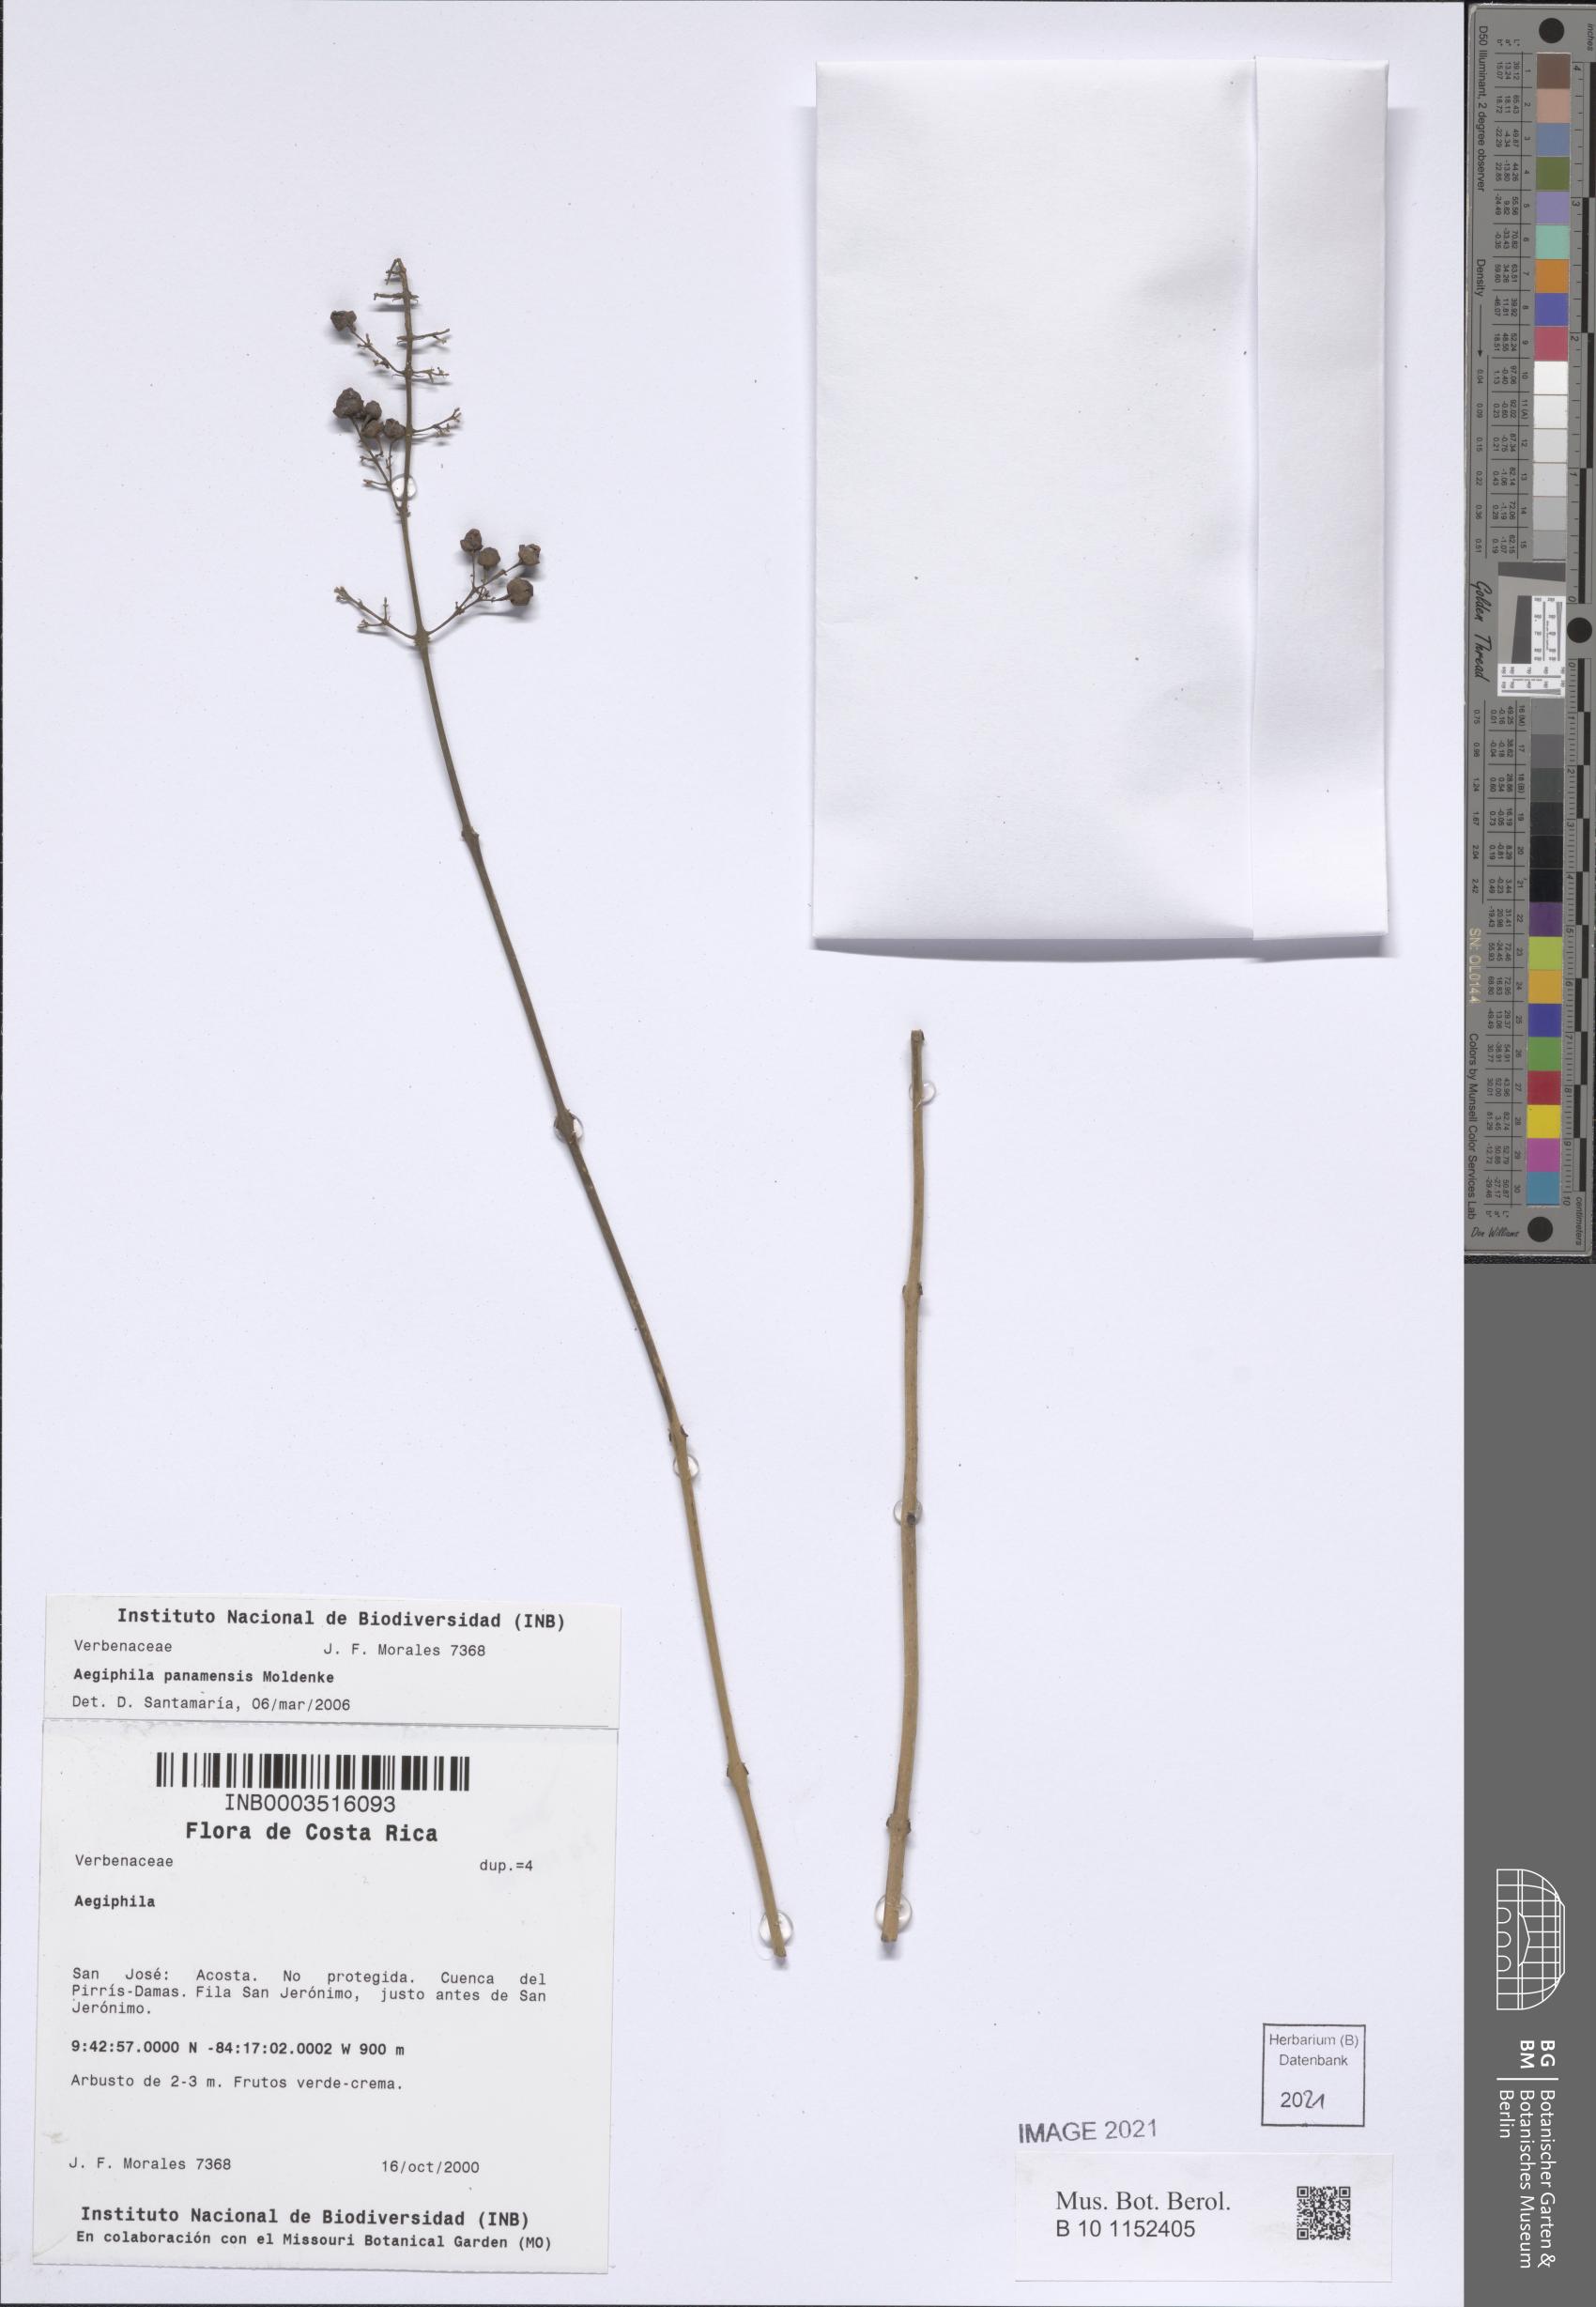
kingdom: Plantae
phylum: Tracheophyta
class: Magnoliopsida
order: Lamiales
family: Lamiaceae
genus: Aegiphila
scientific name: Aegiphila panamensis
